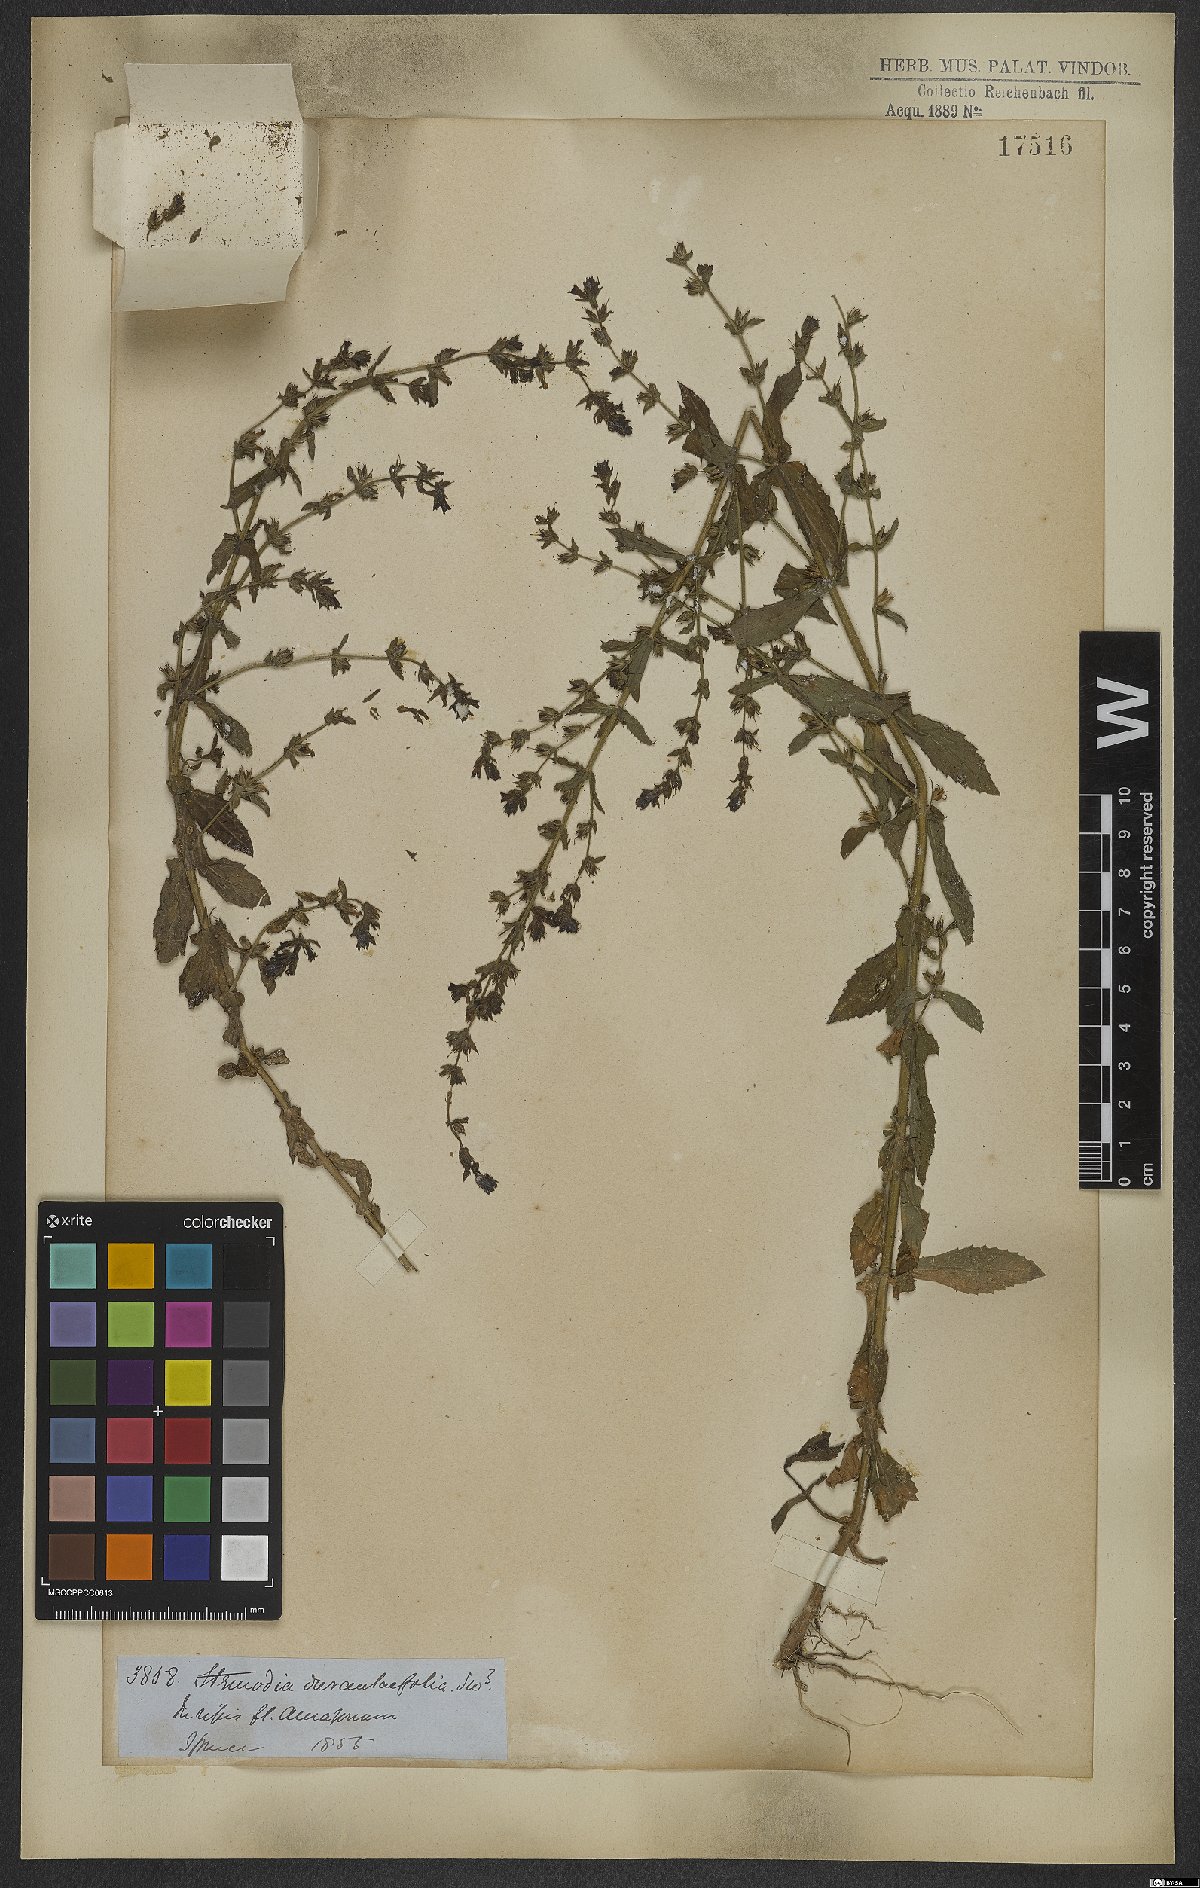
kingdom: Plantae
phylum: Tracheophyta
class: Magnoliopsida
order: Lamiales
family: Plantaginaceae
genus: Stemodia
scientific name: Stemodia durantifolia
